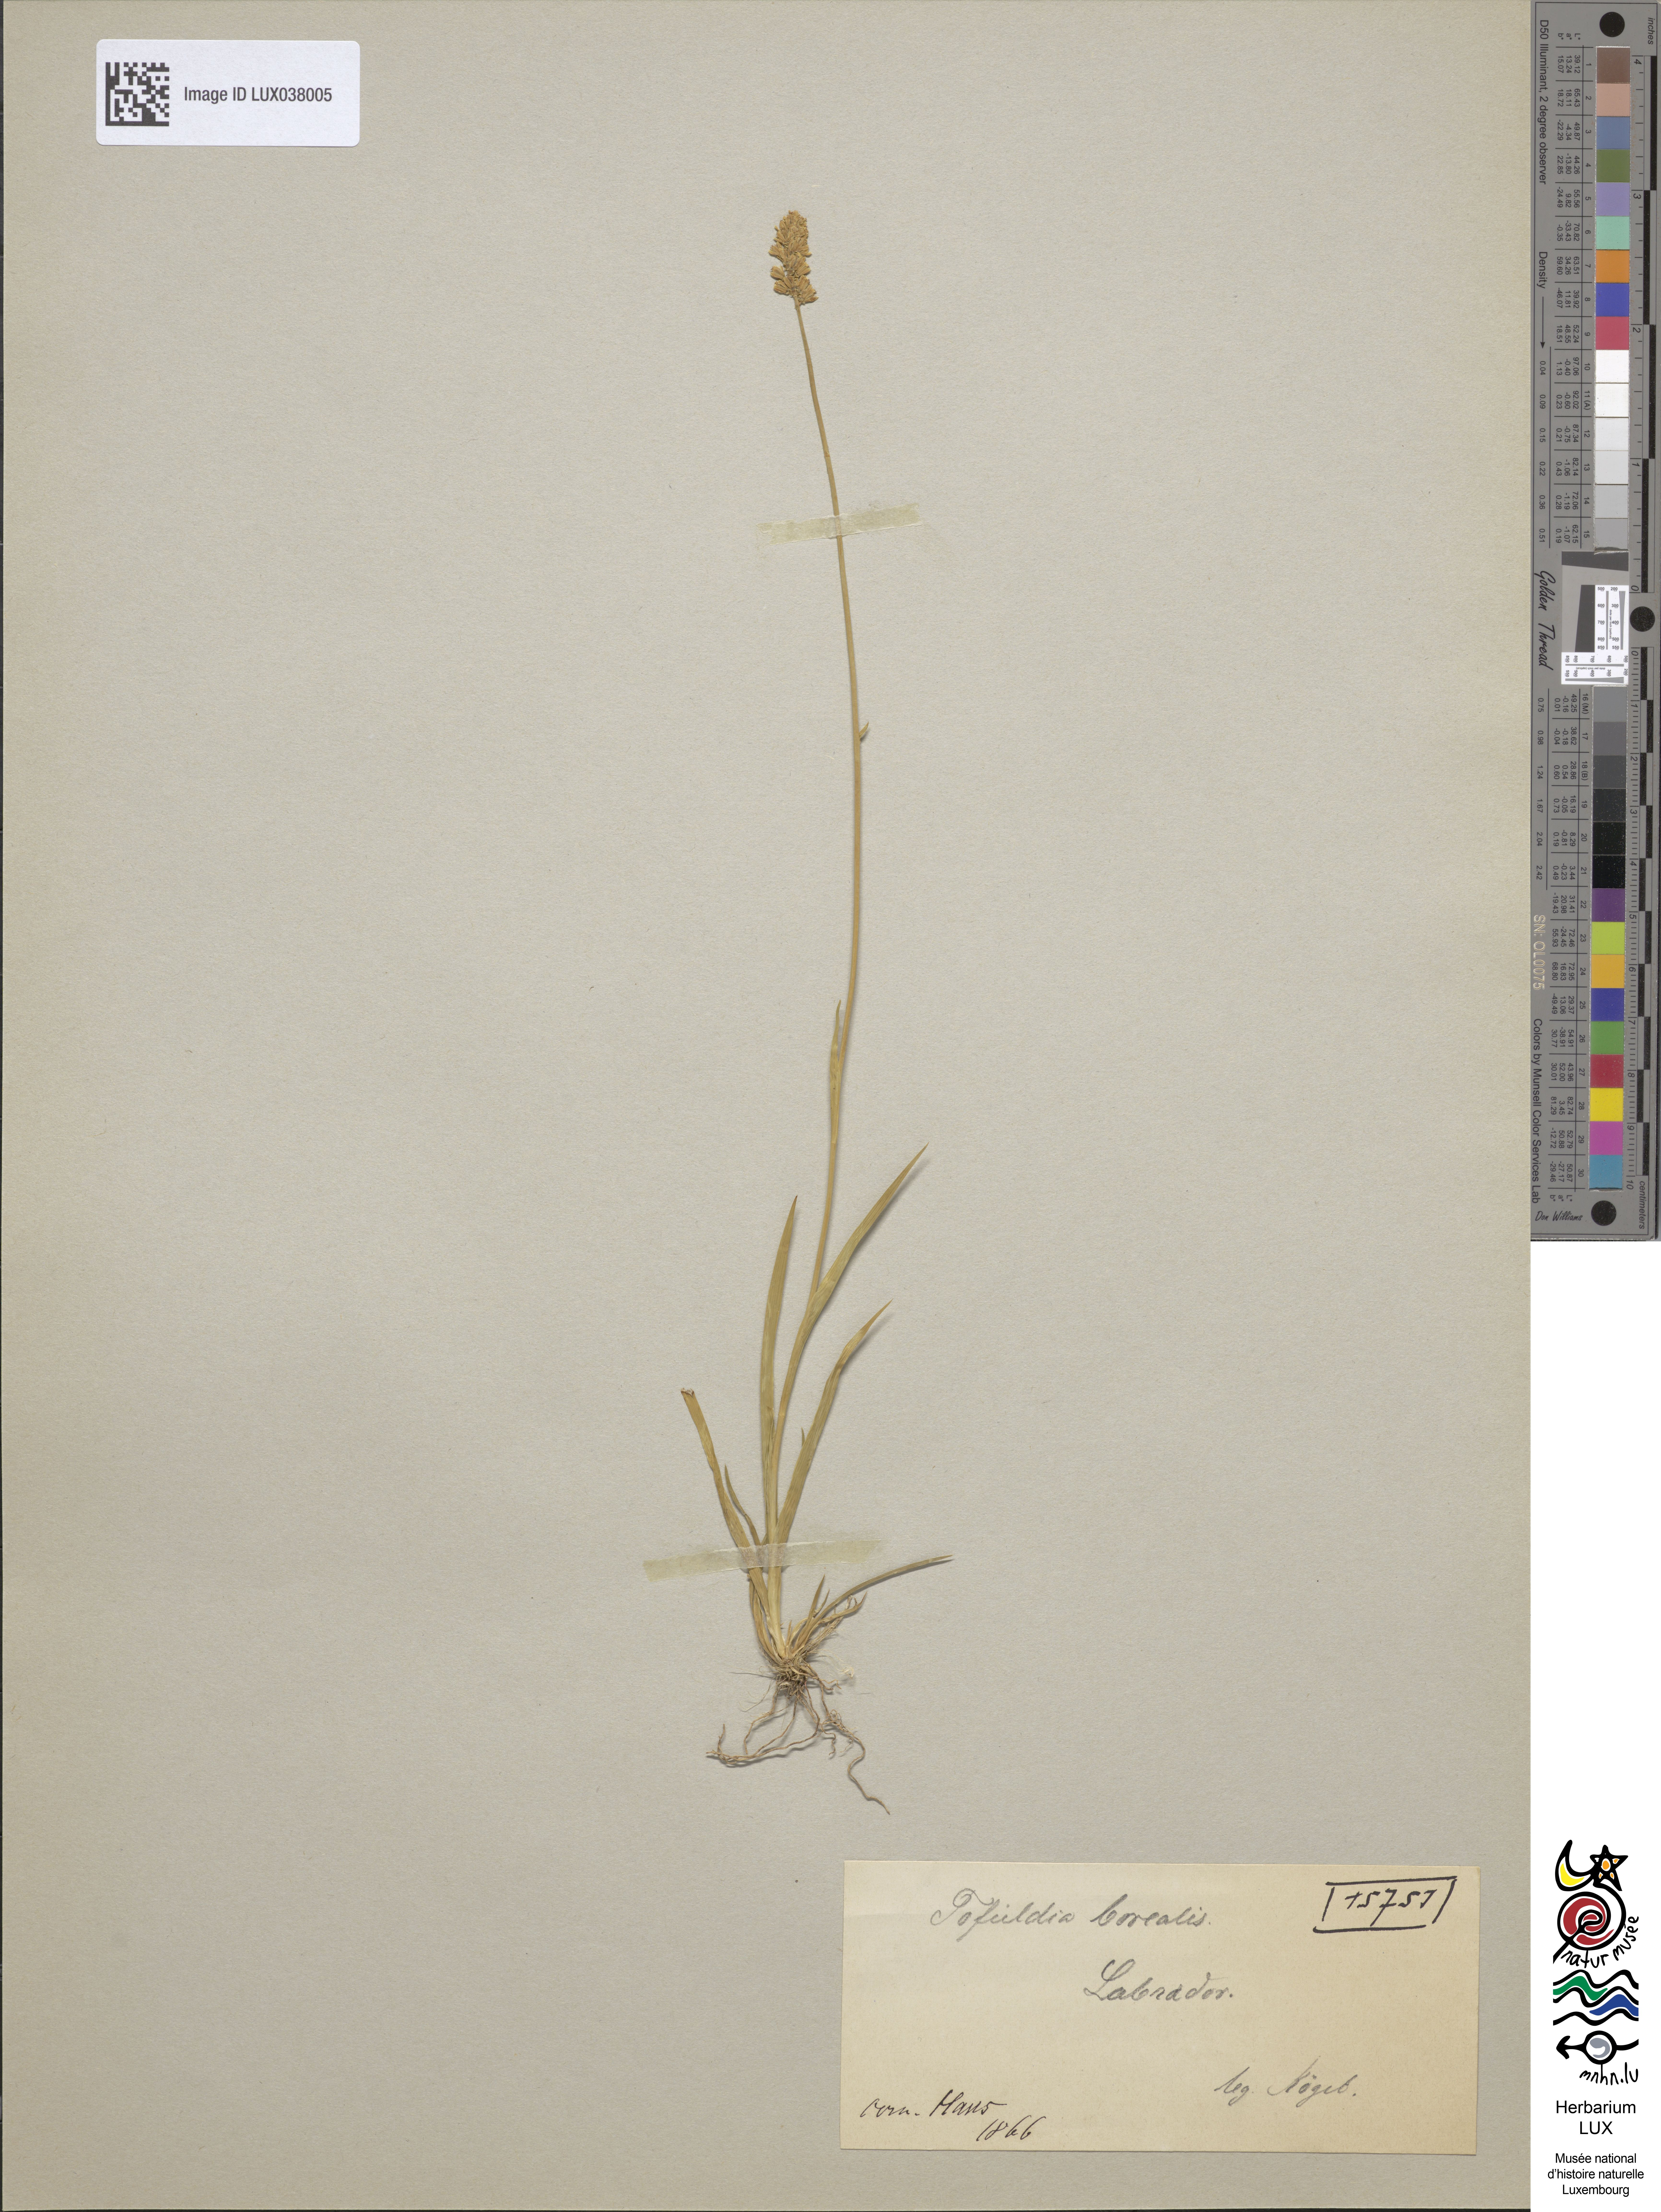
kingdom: Plantae
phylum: Tracheophyta
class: Liliopsida
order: Liliales
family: Melanthiaceae
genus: Tofieldia
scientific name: Tofieldia palustris
